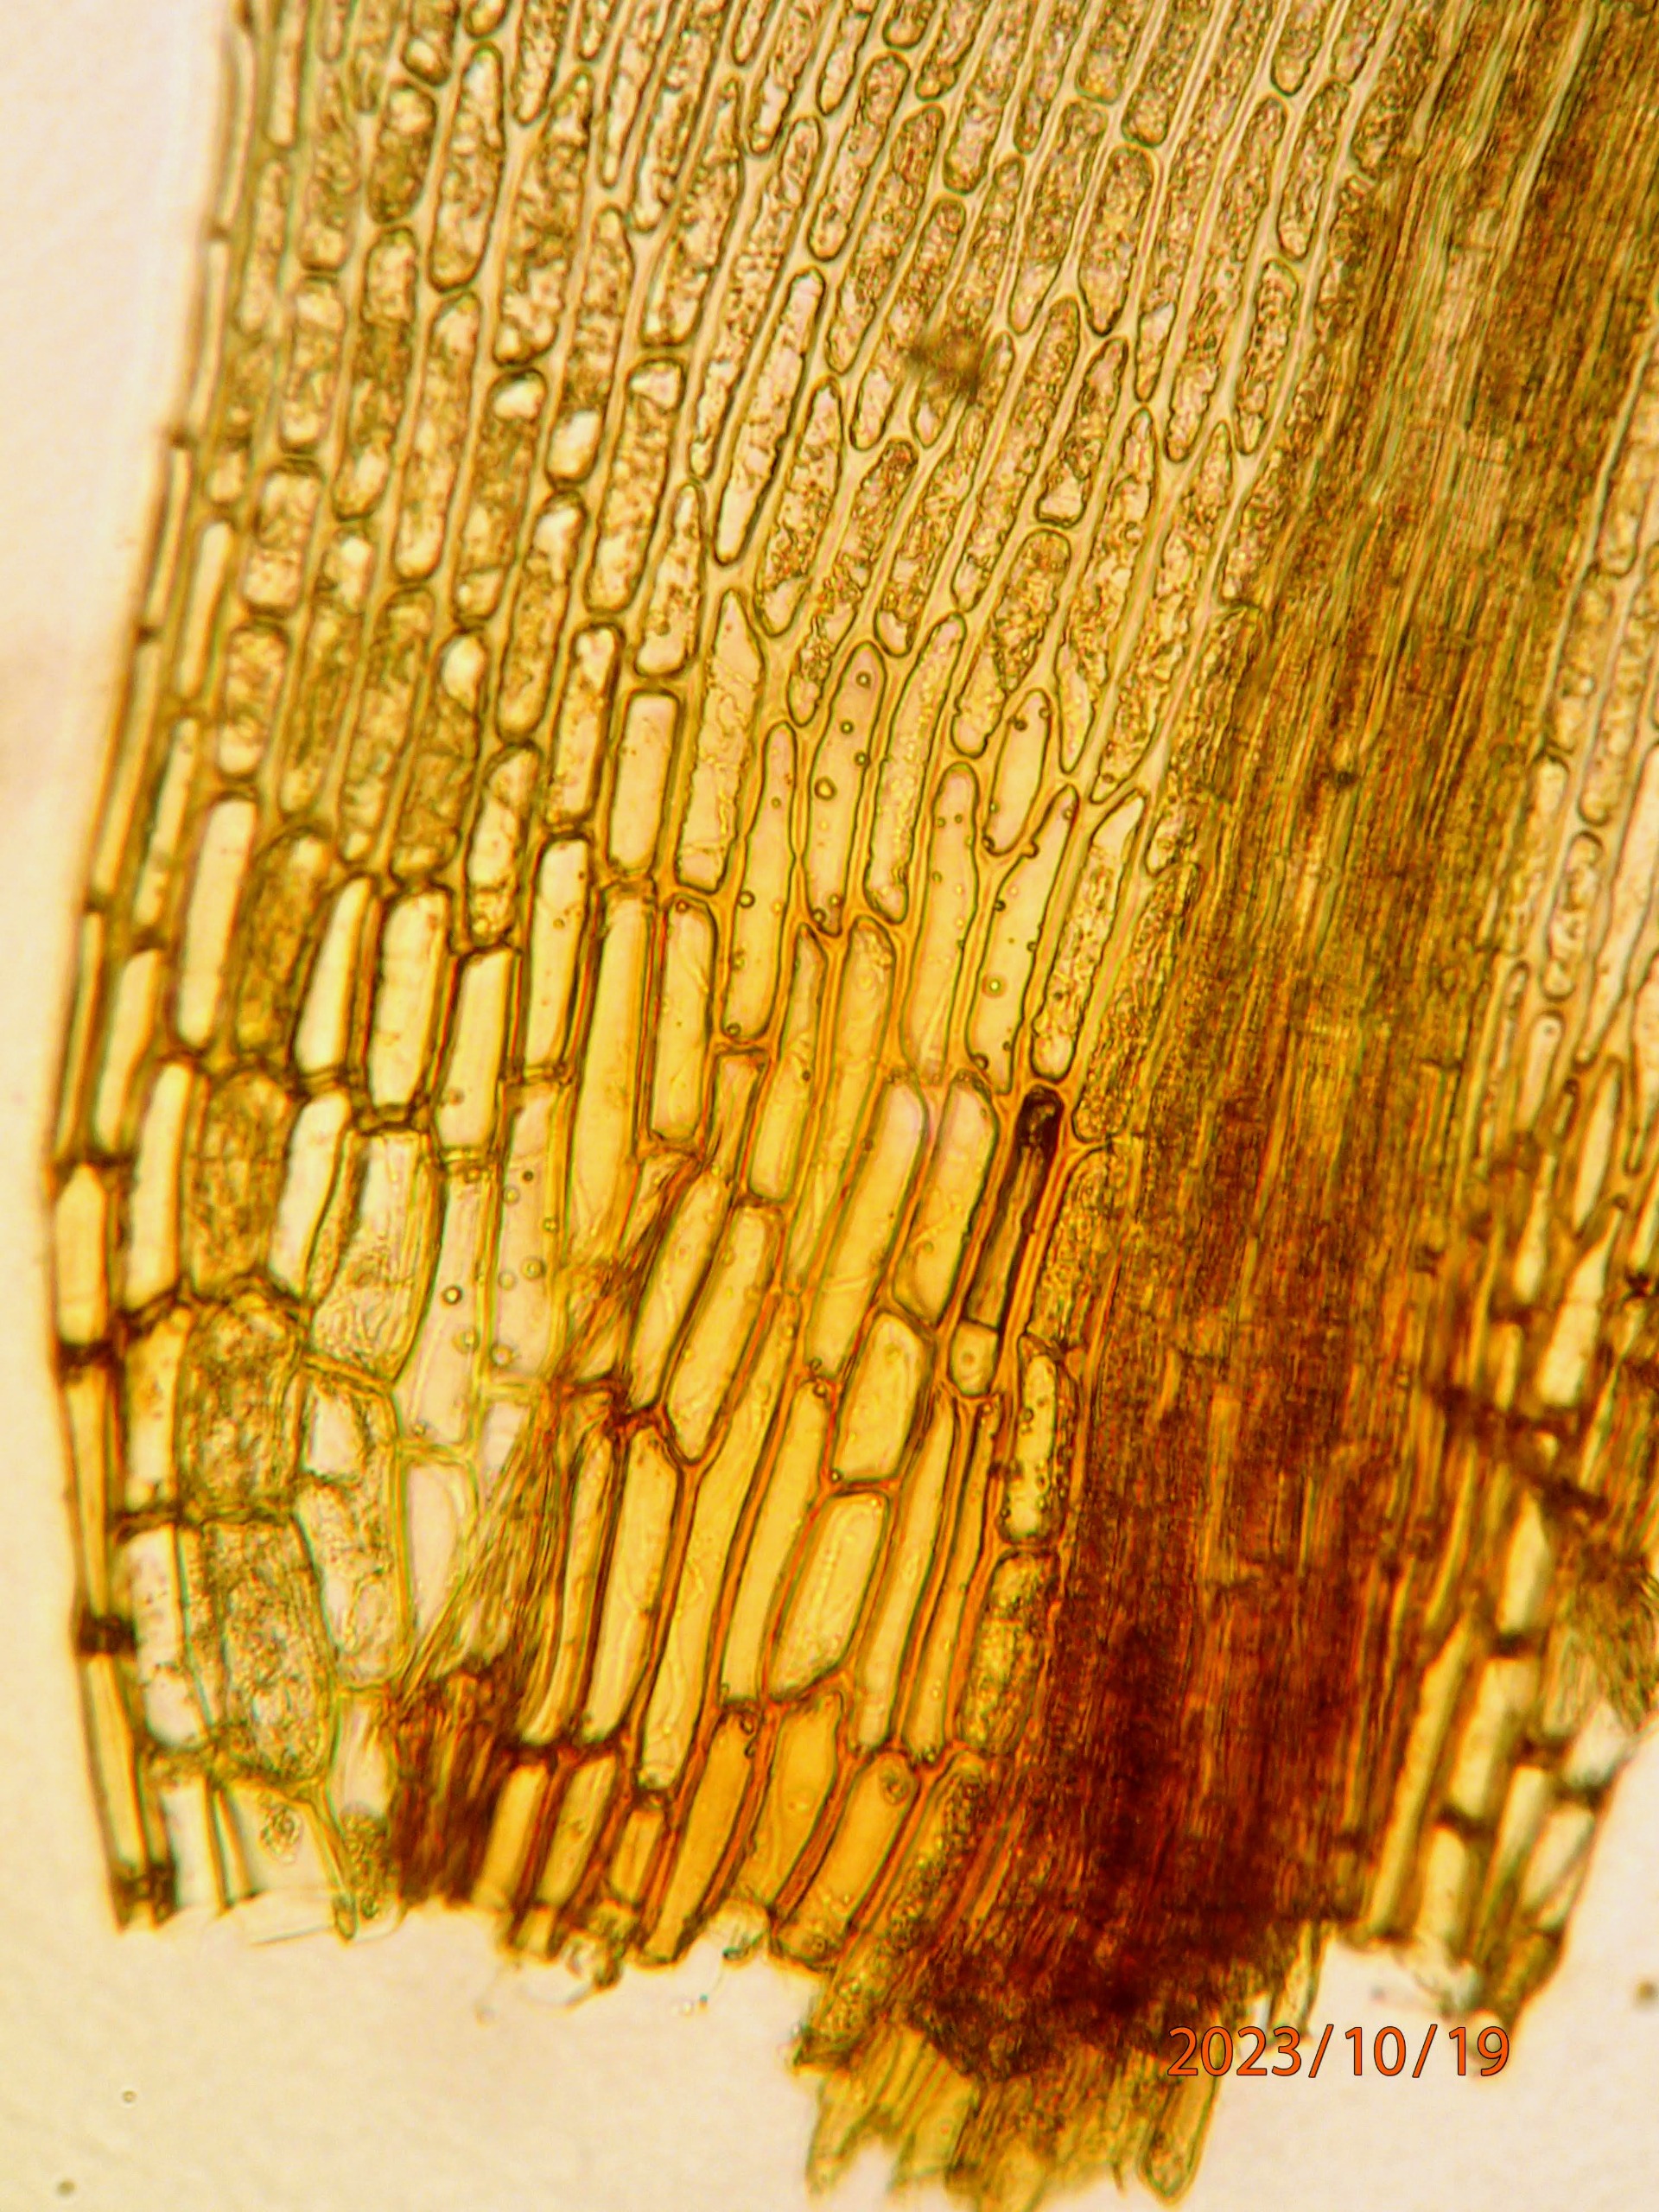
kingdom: Plantae
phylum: Bryophyta
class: Bryopsida
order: Dicranales
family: Dicranaceae
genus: Orthodicranum
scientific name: Orthodicranum montanum
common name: Tæt tyndvinge
